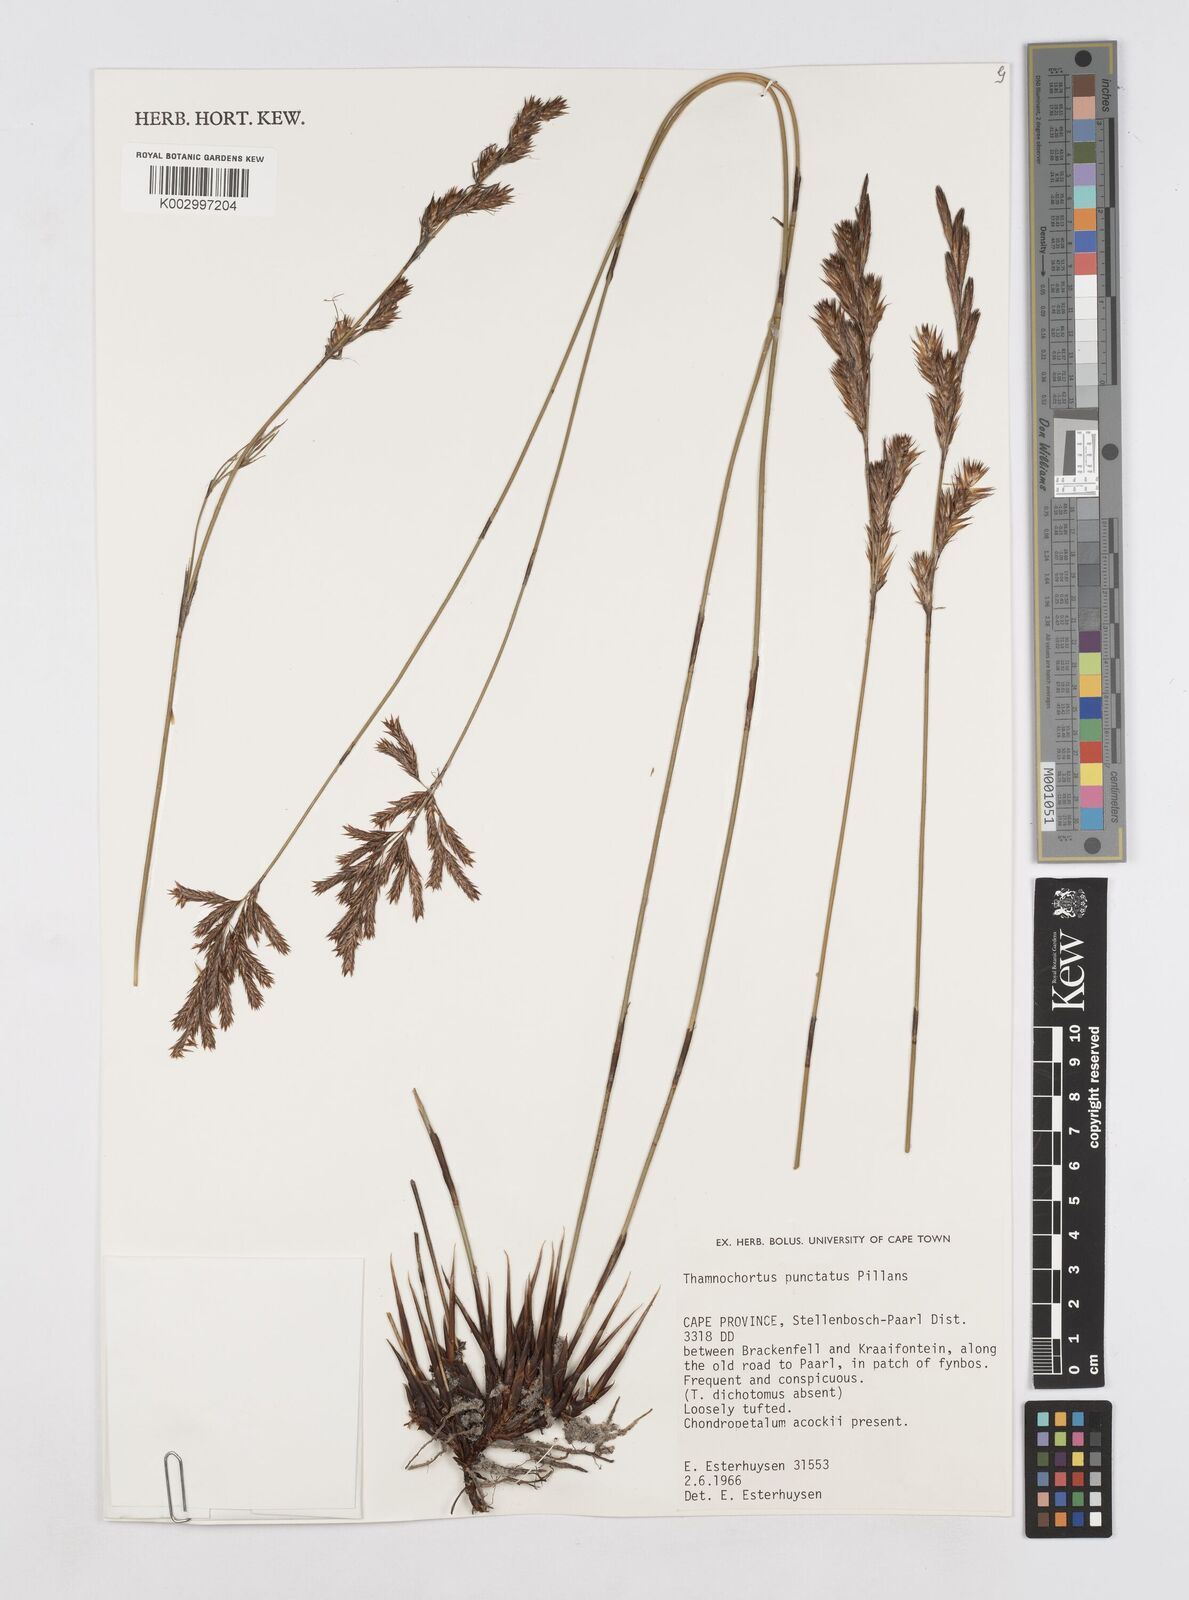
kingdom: Plantae
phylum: Tracheophyta
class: Liliopsida
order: Poales
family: Restionaceae
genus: Thamnochortus
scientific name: Thamnochortus punctatus
